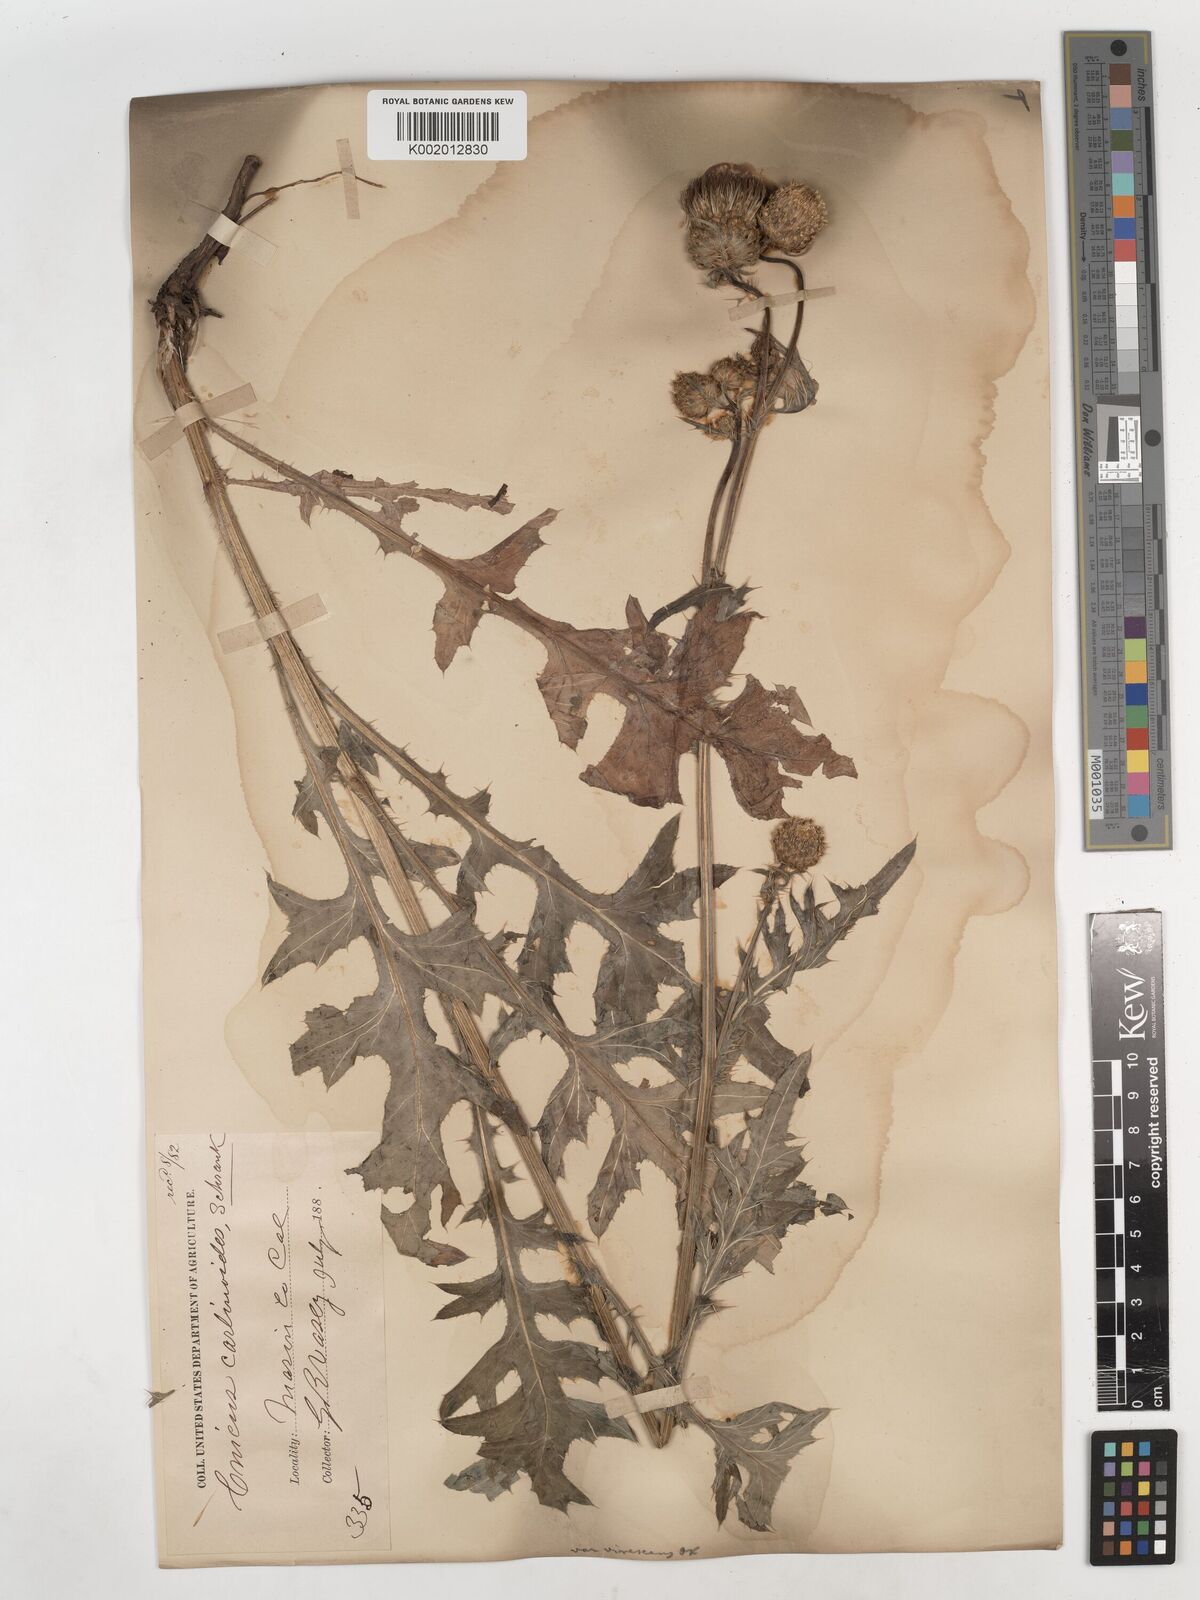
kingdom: Plantae
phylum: Tracheophyta
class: Magnoliopsida
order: Asterales
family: Asteraceae
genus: Cirsium
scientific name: Cirsium tioganum
